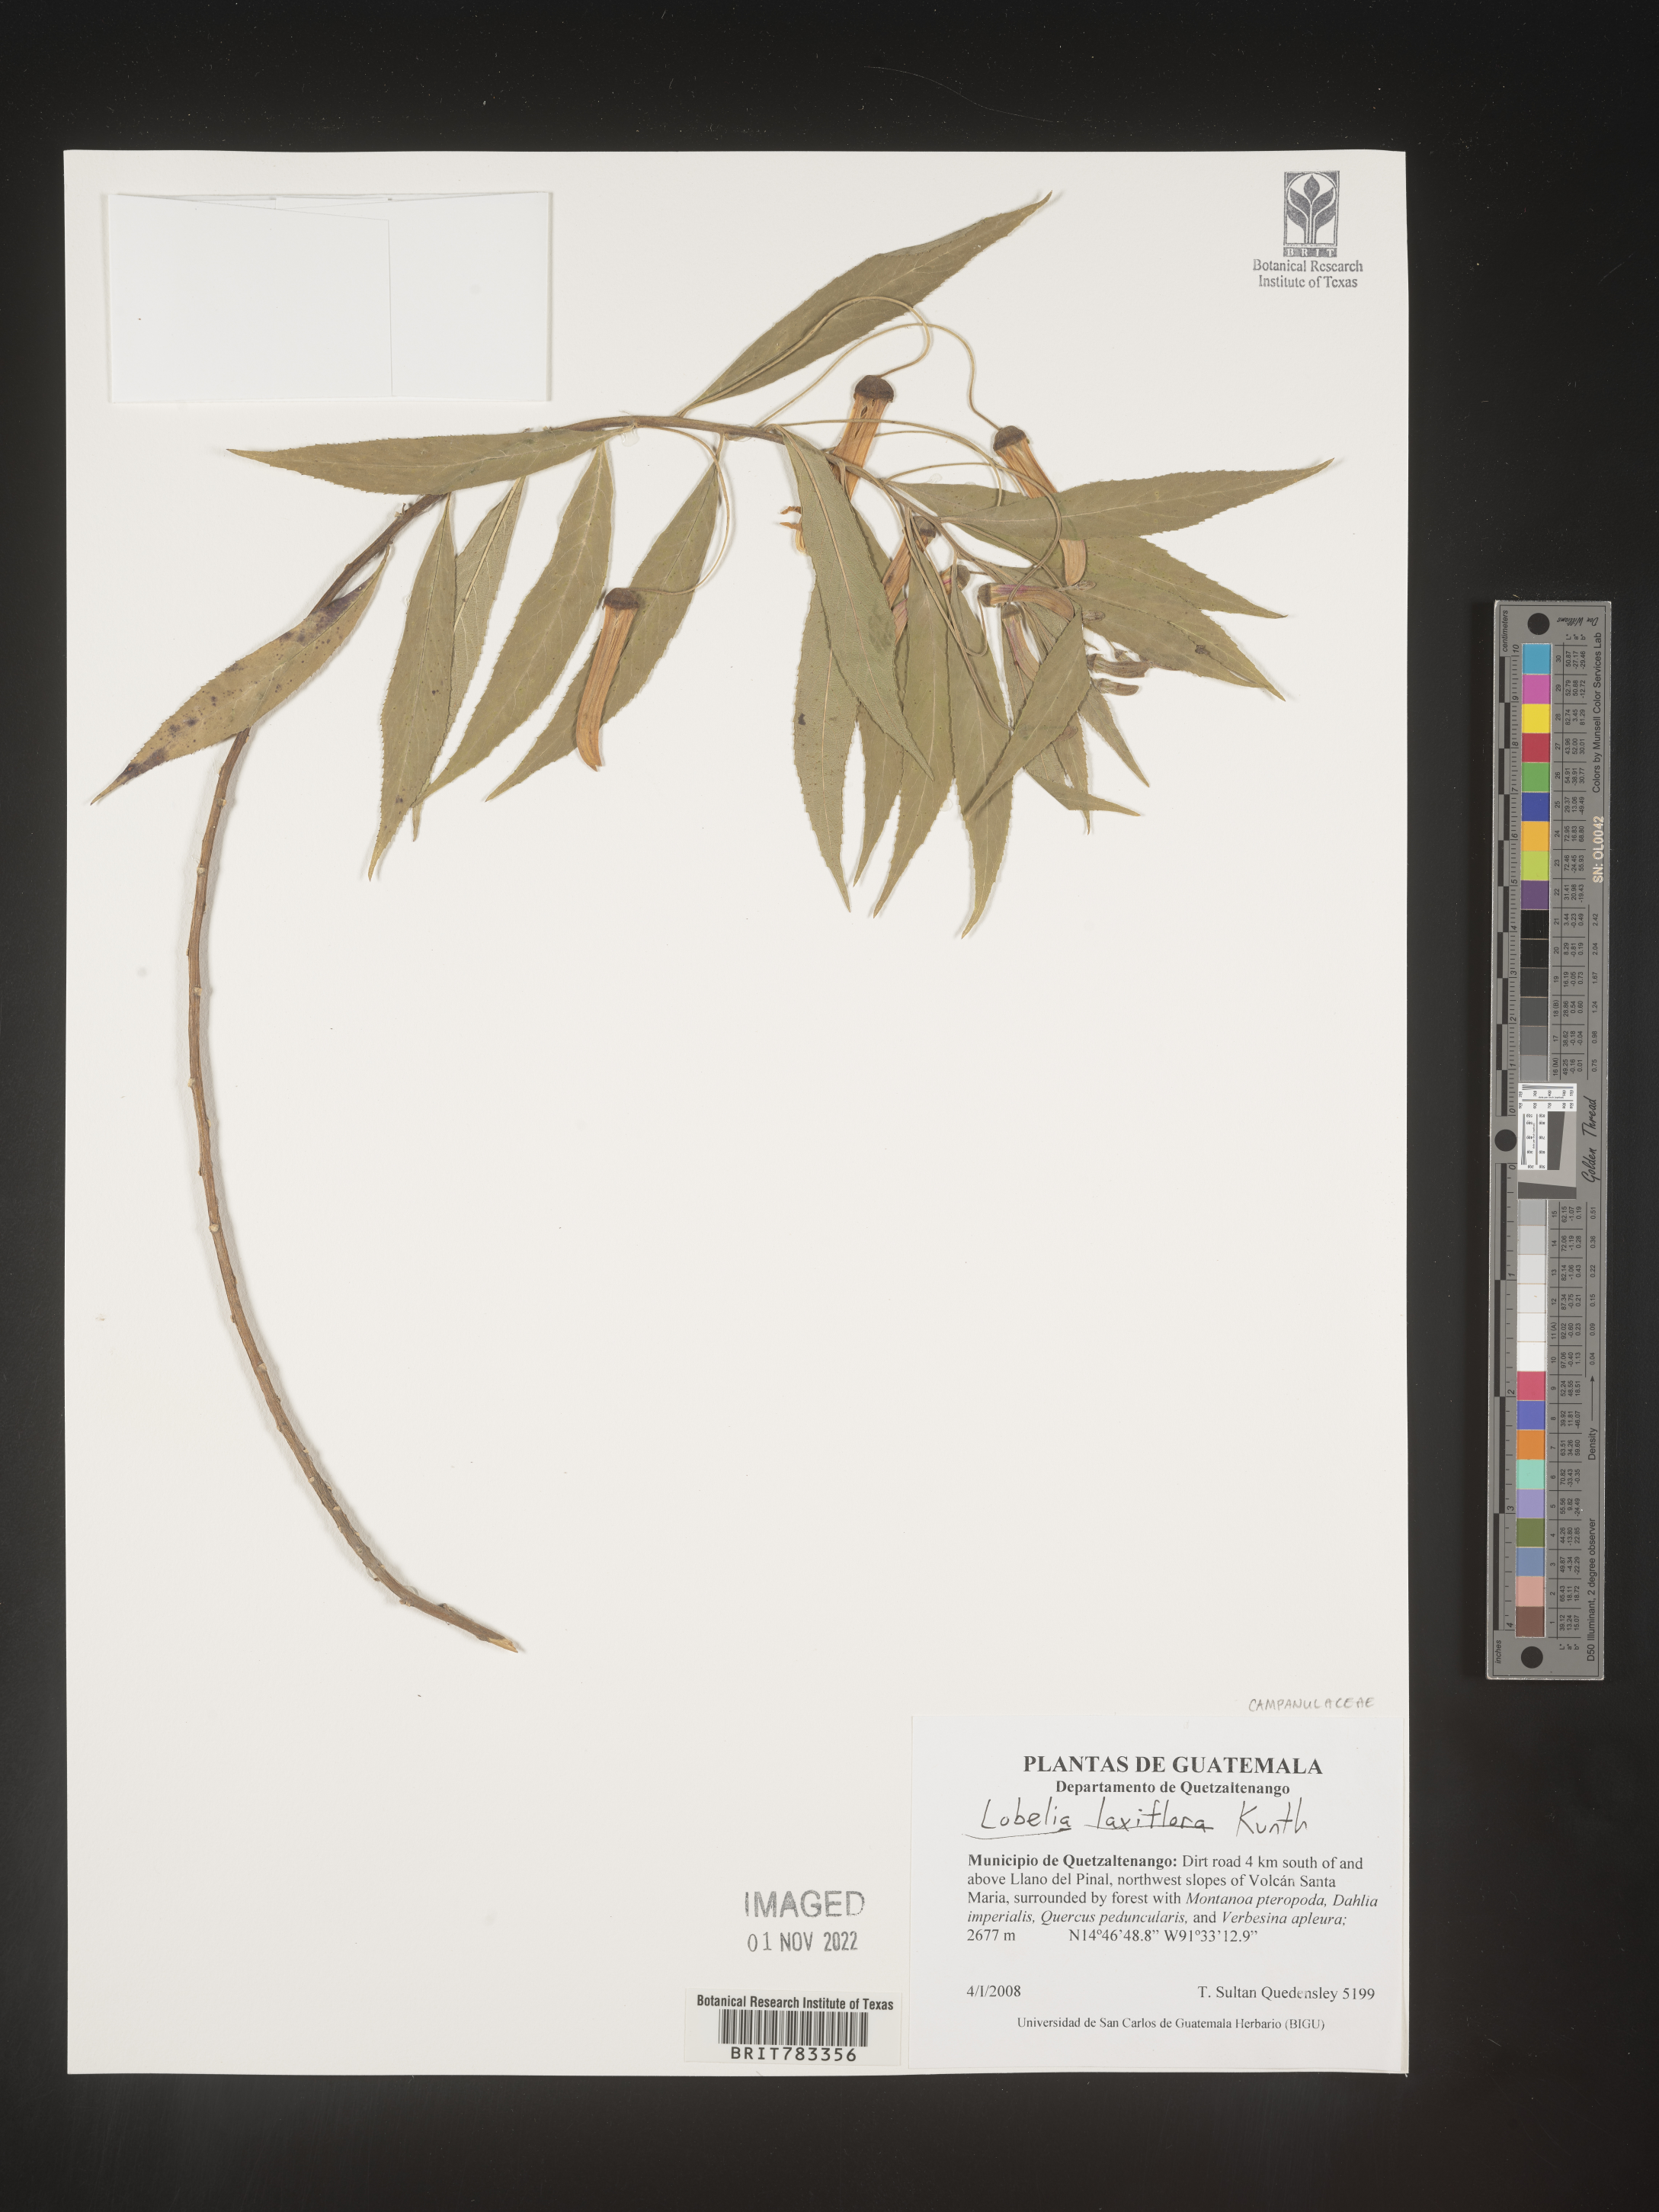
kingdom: Plantae
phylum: Tracheophyta
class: Magnoliopsida
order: Asterales
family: Campanulaceae
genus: Lobelia
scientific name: Lobelia
